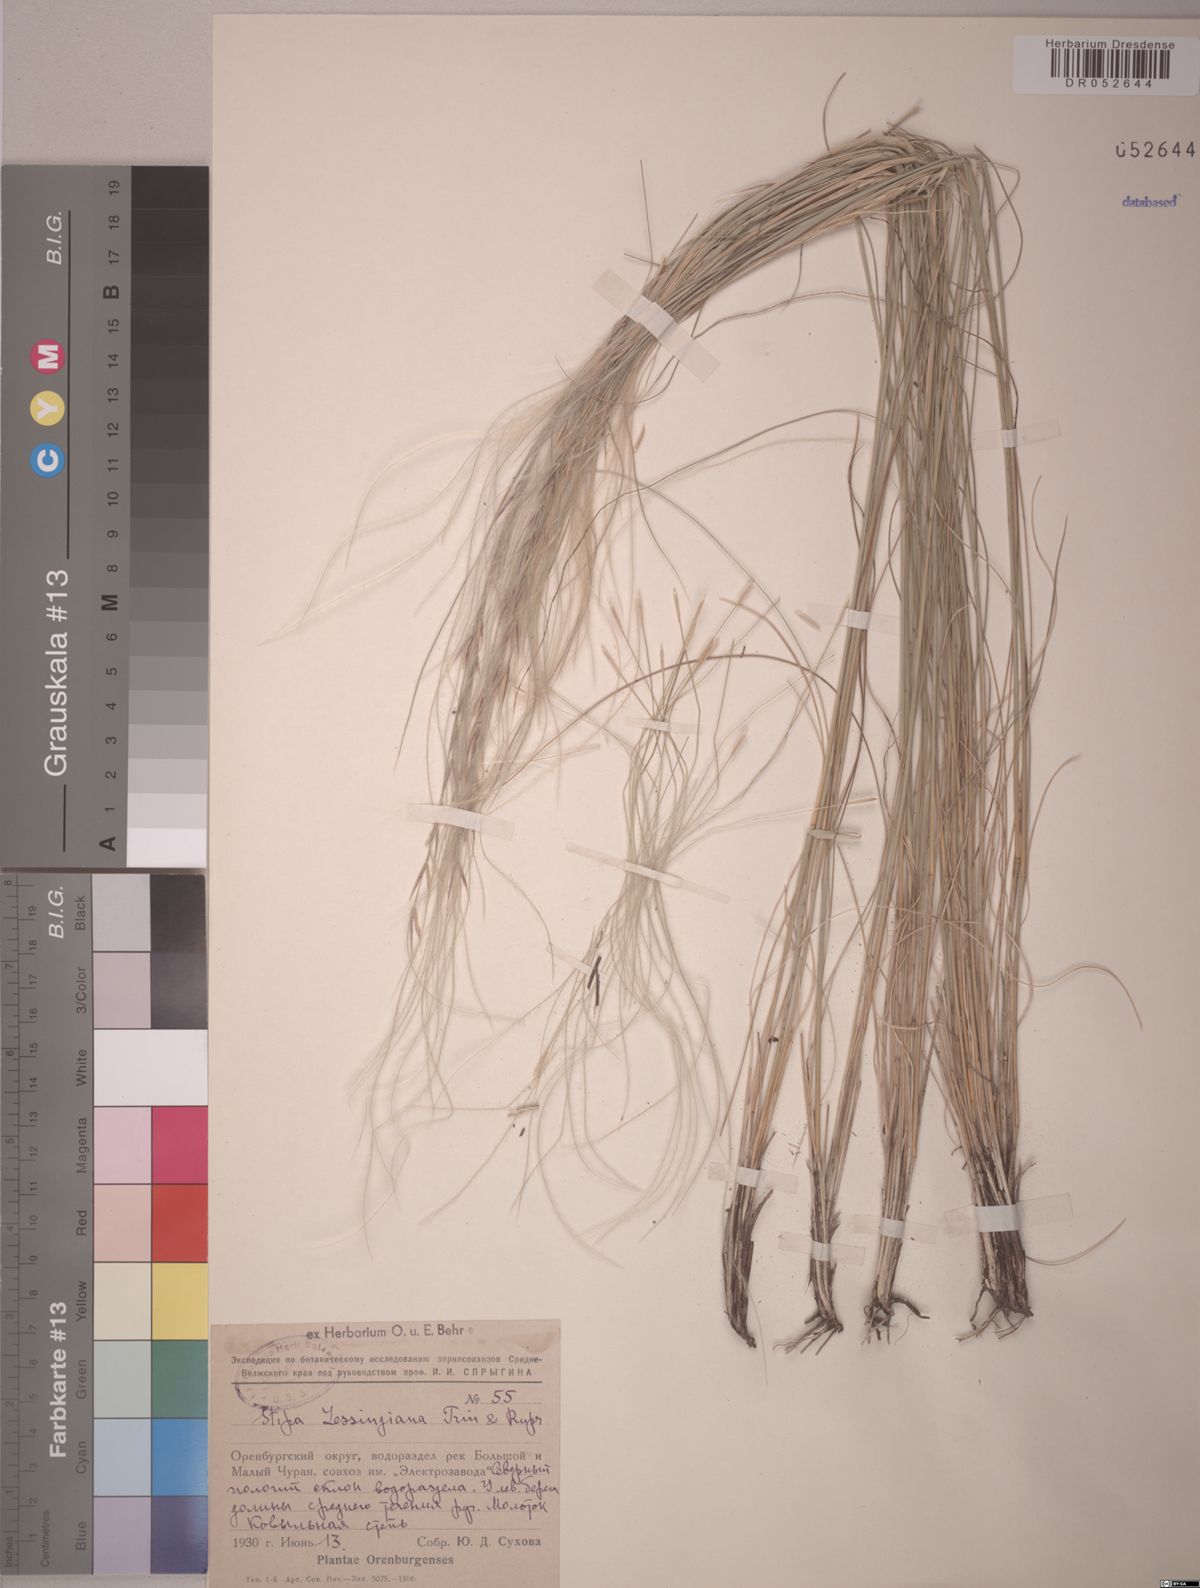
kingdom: Plantae
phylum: Tracheophyta
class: Liliopsida
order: Poales
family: Poaceae
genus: Stipa
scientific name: Stipa lessingiana
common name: Needle grass
